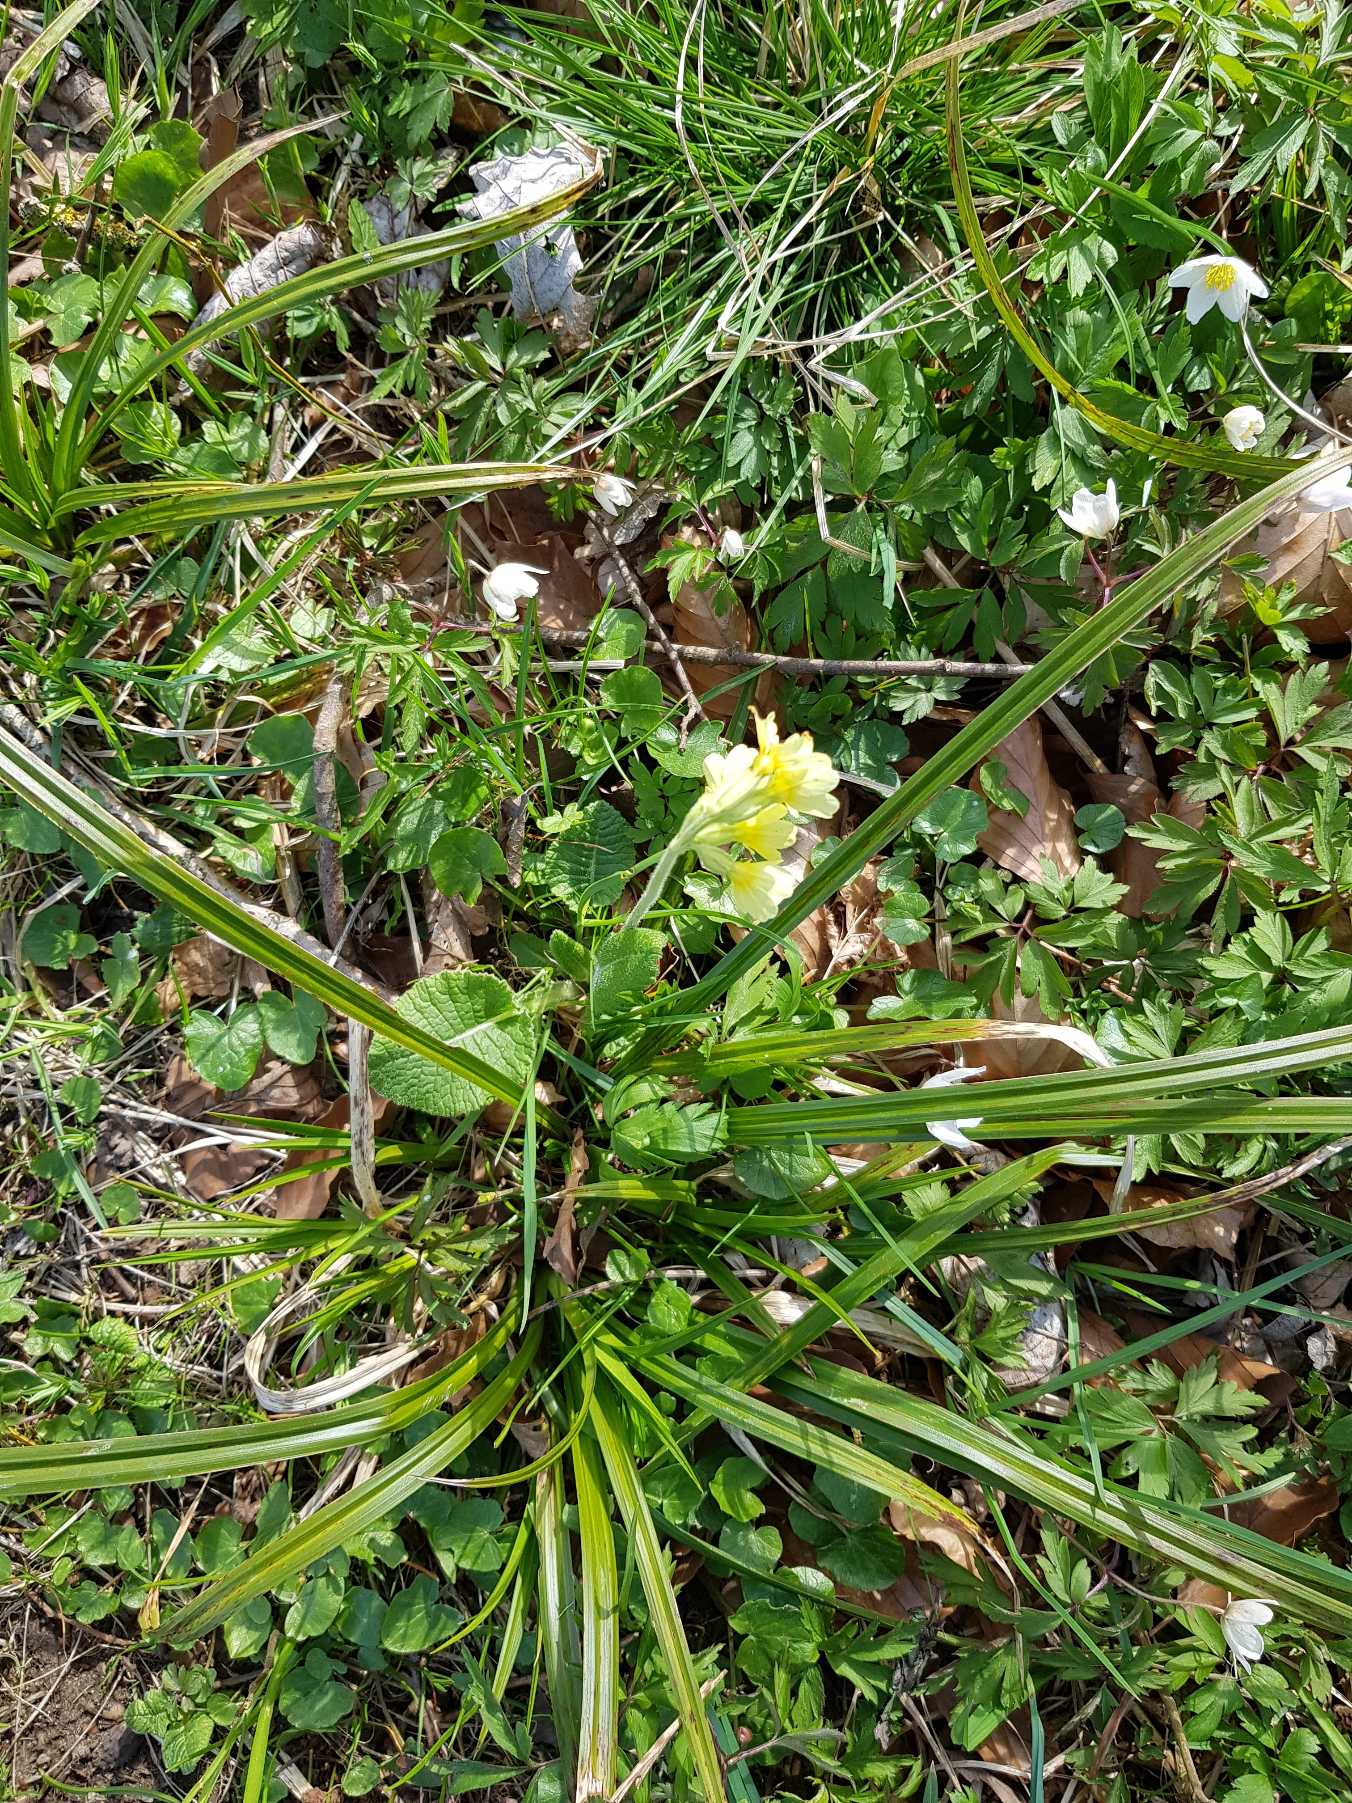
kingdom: Plantae
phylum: Tracheophyta
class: Magnoliopsida
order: Ericales
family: Primulaceae
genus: Primula
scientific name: Primula elatior
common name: Fladkravet kodriver
